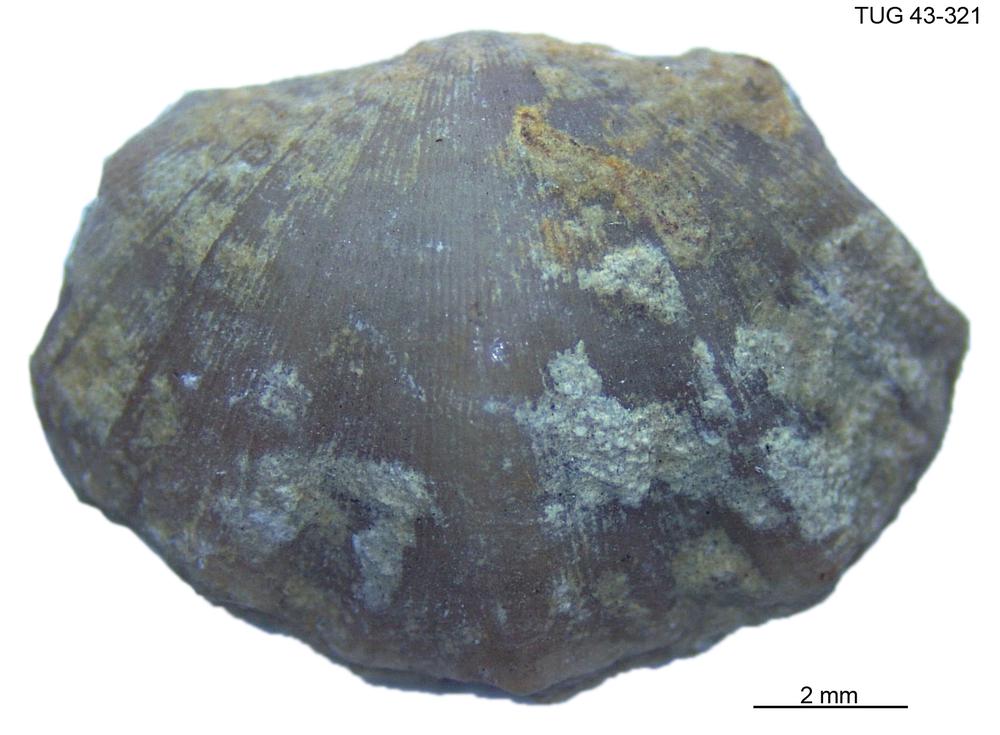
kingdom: Animalia
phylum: Brachiopoda
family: Oldhaminidae
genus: Eoplectodonta
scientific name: Eoplectodonta
